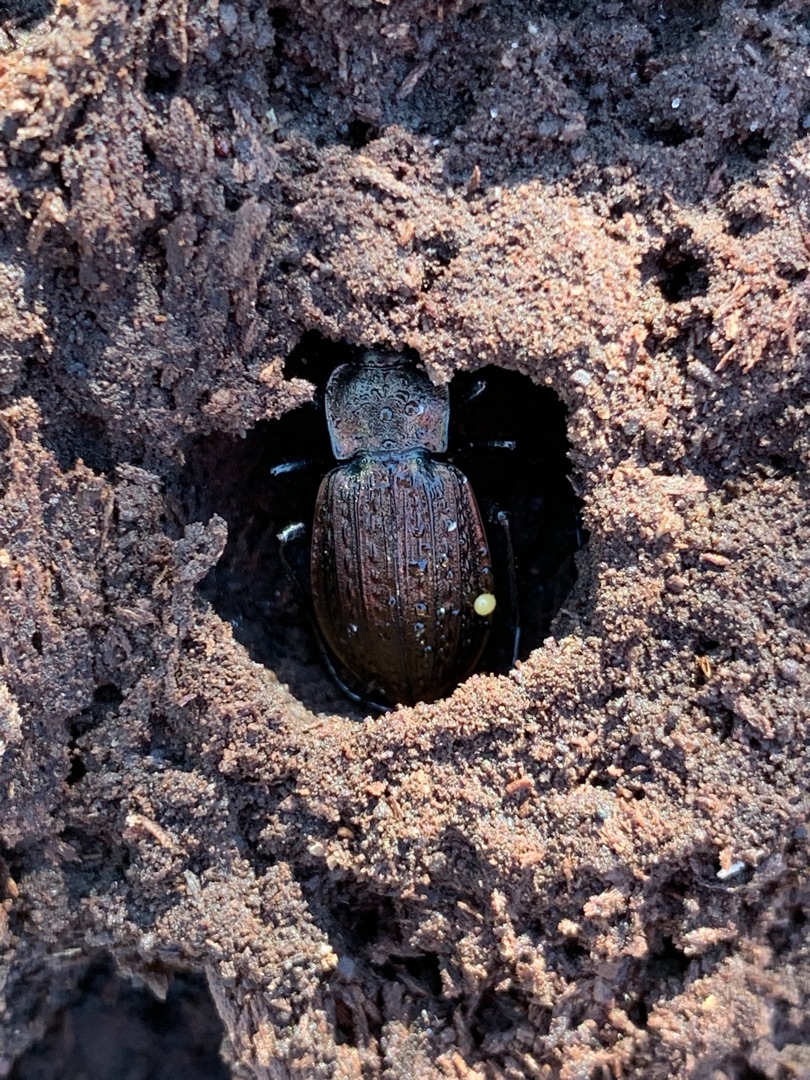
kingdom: Animalia
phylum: Arthropoda
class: Insecta
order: Coleoptera
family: Carabidae
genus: Carabus
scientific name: Carabus granulatus
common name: Kornet løber
